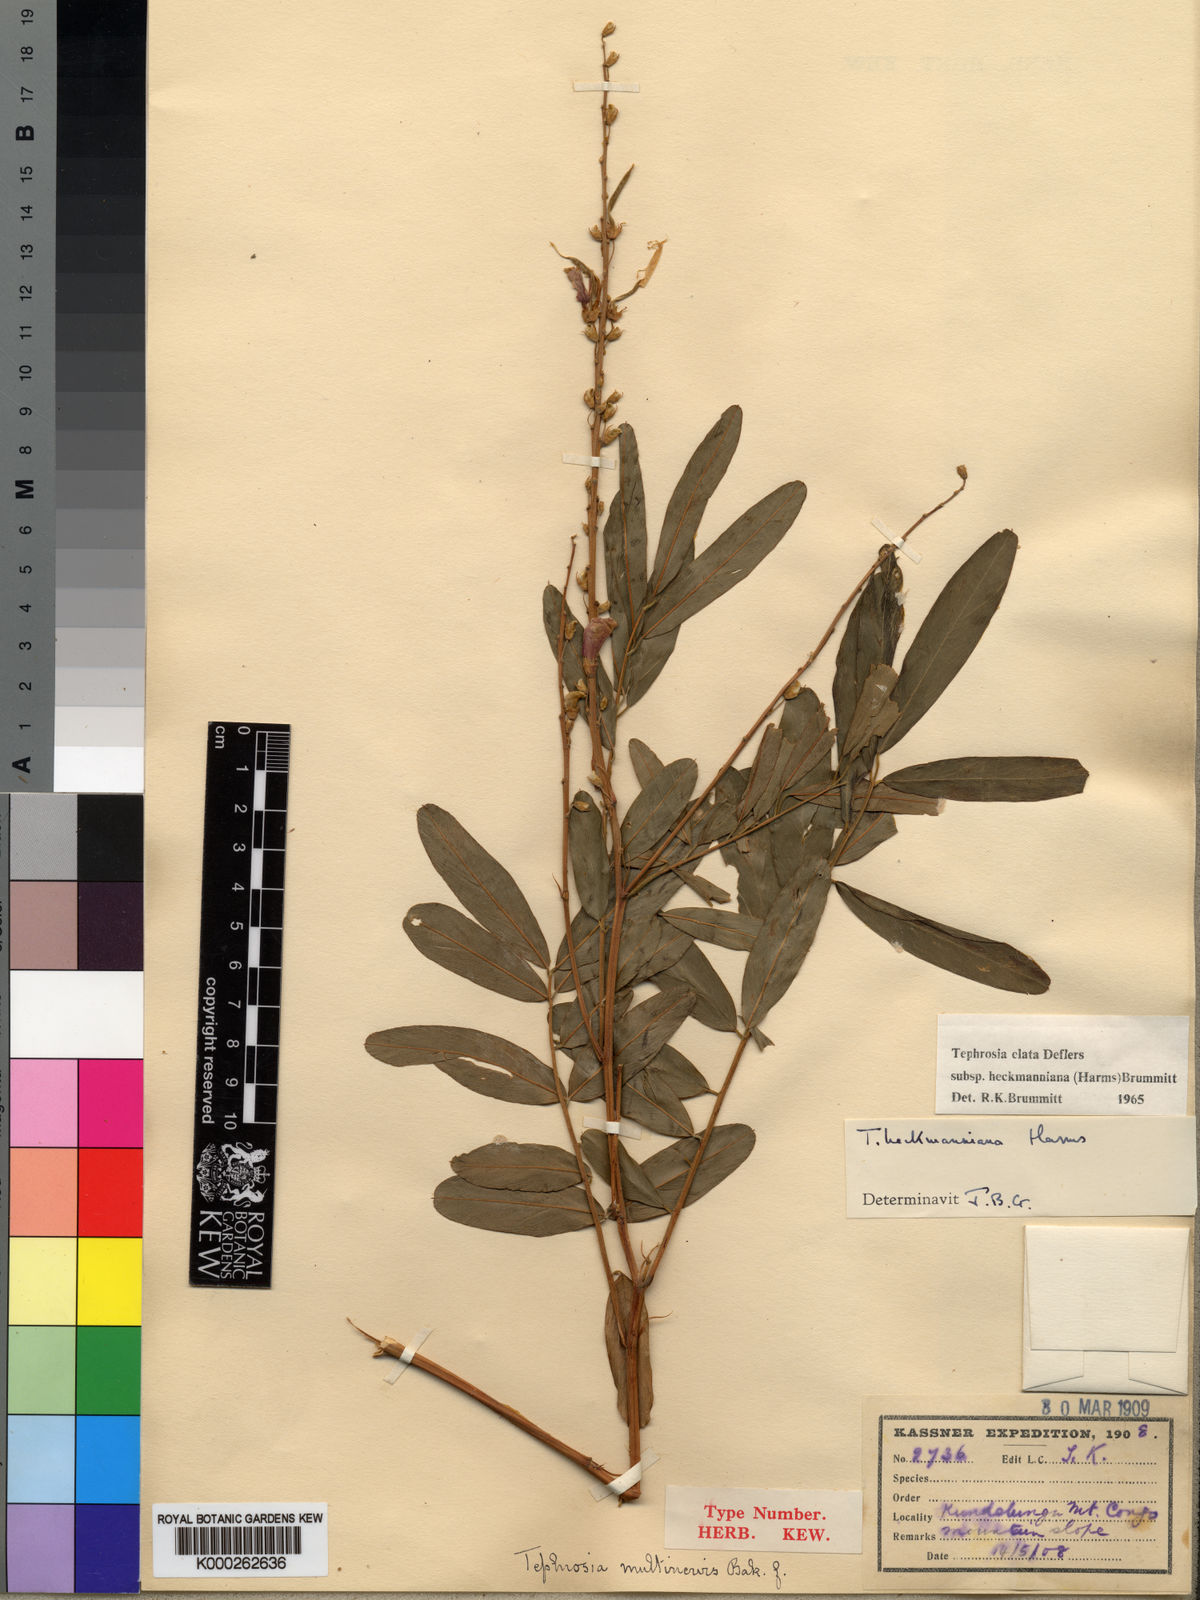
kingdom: Plantae
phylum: Tracheophyta
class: Magnoliopsida
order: Fabales
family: Fabaceae
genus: Tephrosia
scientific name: Tephrosia elata
